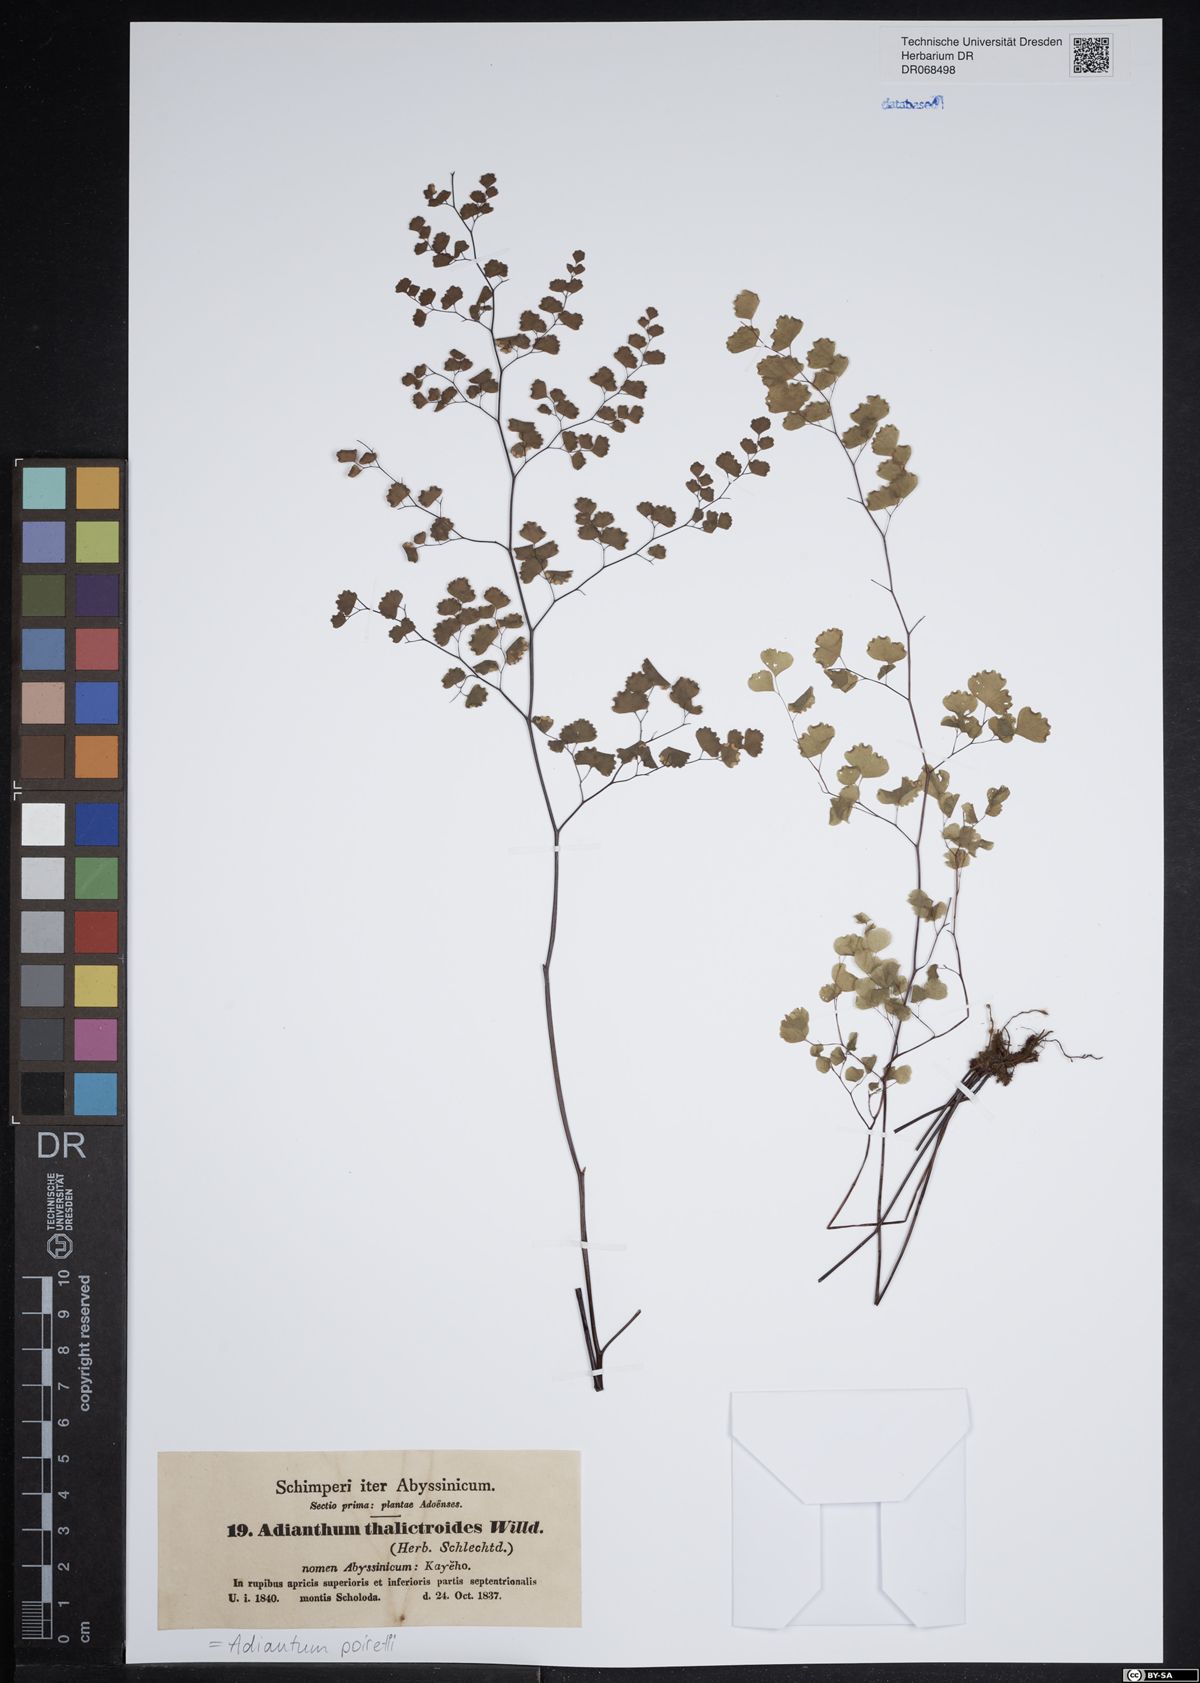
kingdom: Plantae
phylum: Tracheophyta
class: Polypodiopsida
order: Polypodiales
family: Pteridaceae
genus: Adiantum
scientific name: Adiantum poiretii
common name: Mexican maidenhair
